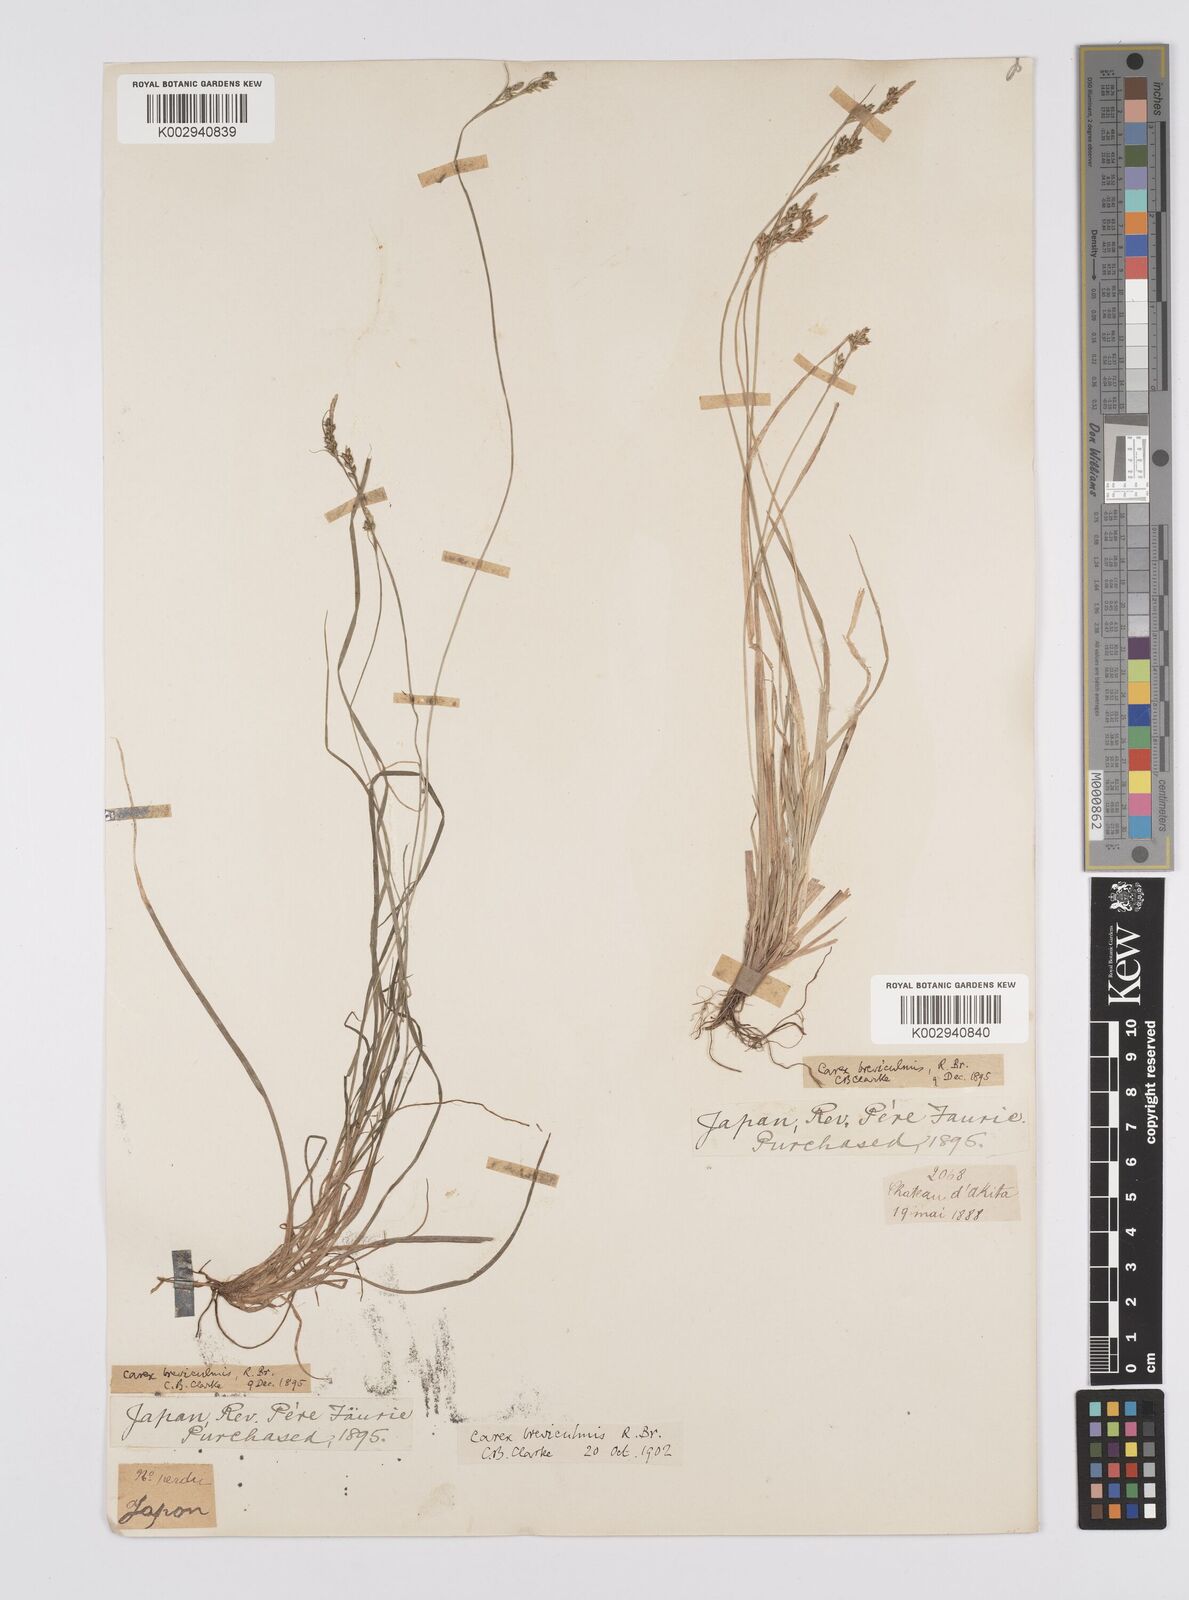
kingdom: Plantae
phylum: Tracheophyta
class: Liliopsida
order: Poales
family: Cyperaceae
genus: Carex
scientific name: Carex breviculmis
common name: Asian shortstem sedge
